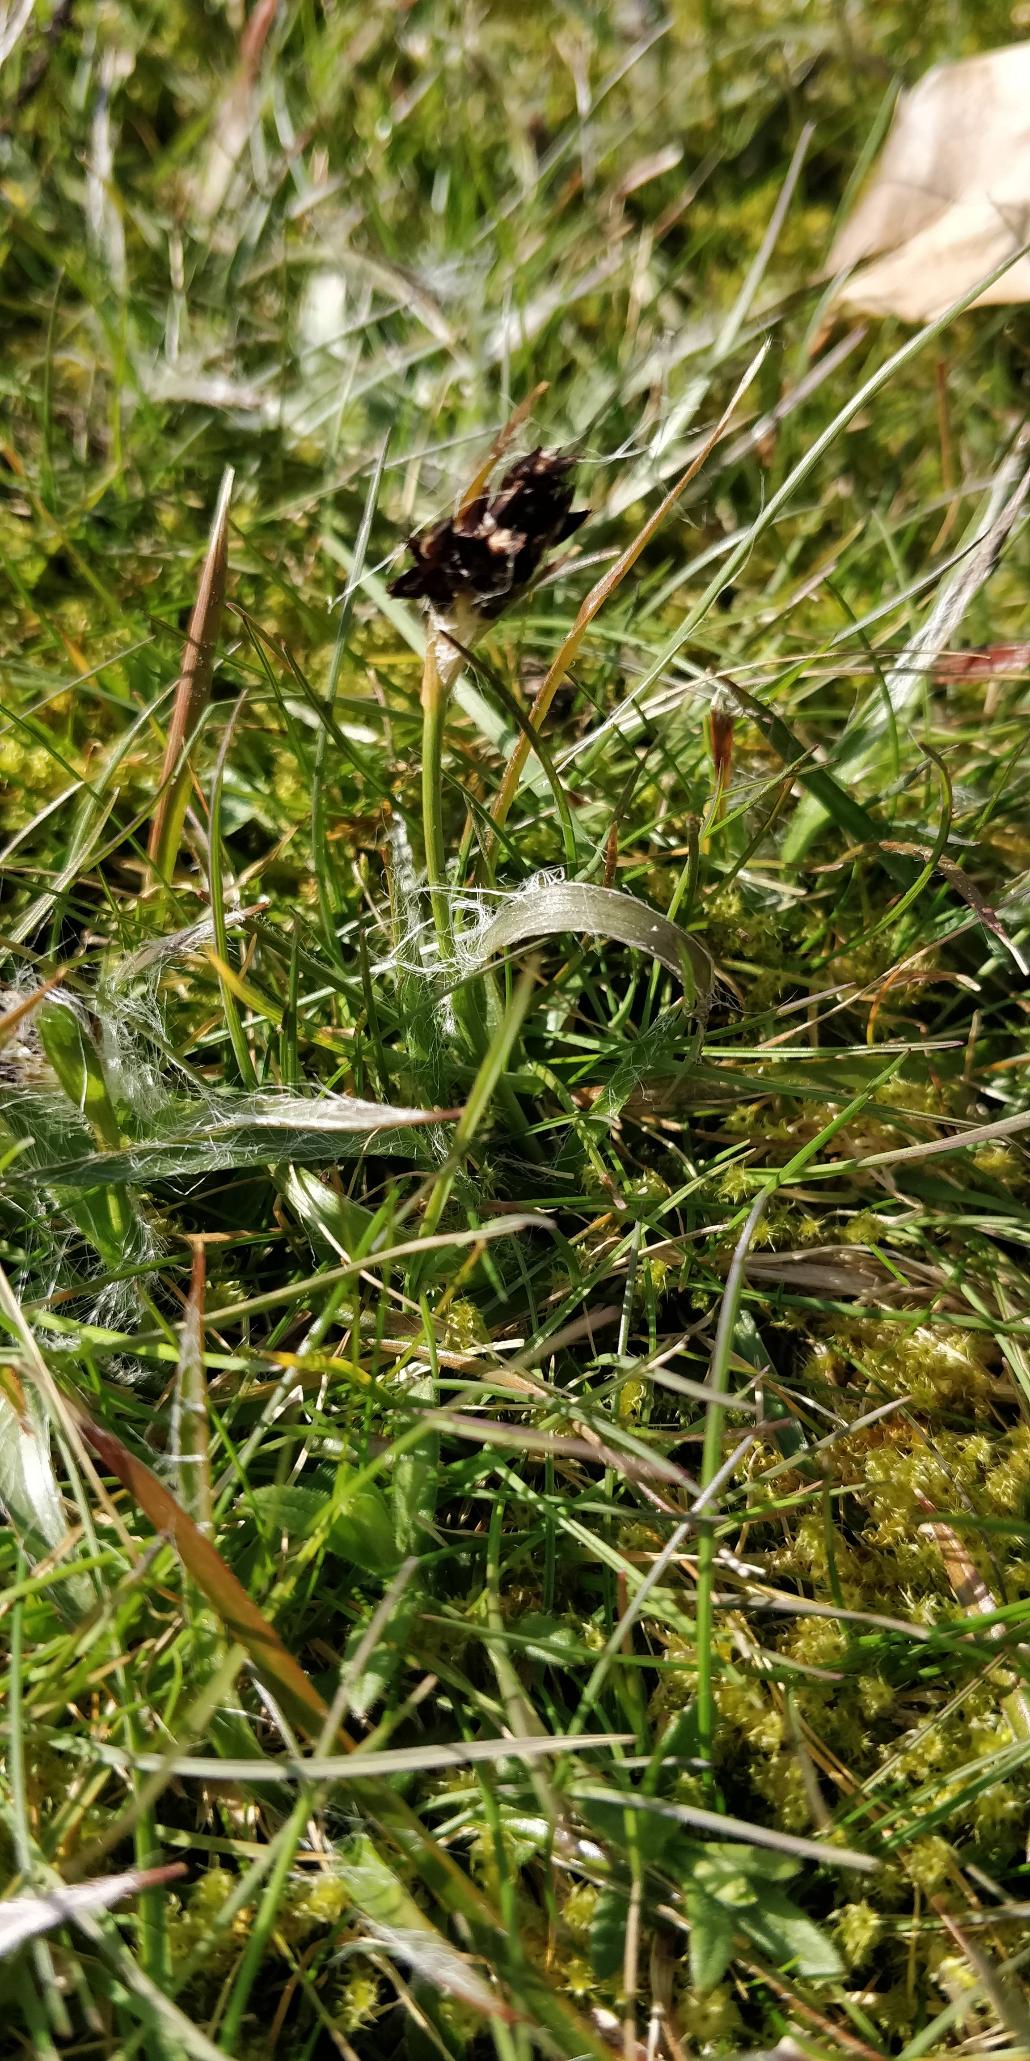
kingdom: Plantae
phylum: Tracheophyta
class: Liliopsida
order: Poales
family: Juncaceae
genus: Luzula
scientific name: Luzula campestris
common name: Mark-frytle
